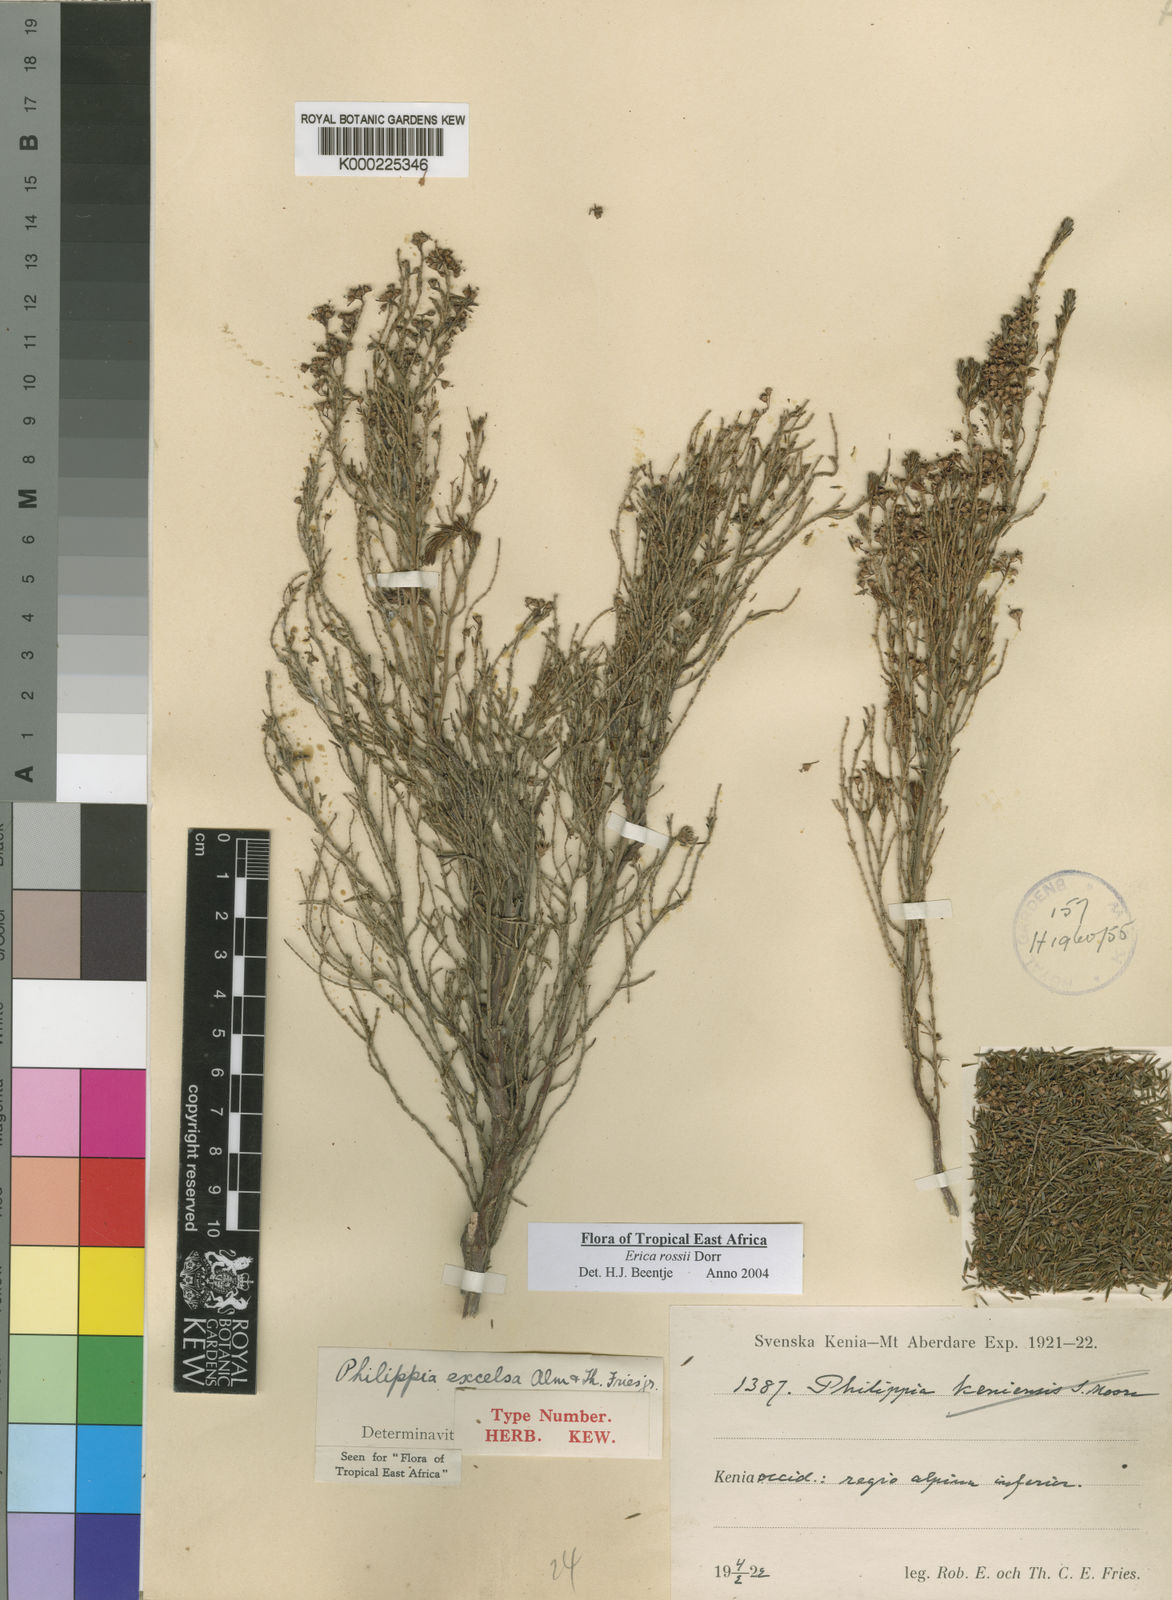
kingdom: Plantae
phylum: Tracheophyta
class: Magnoliopsida
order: Ericales
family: Ericaceae
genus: Erica
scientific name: Erica mannii
